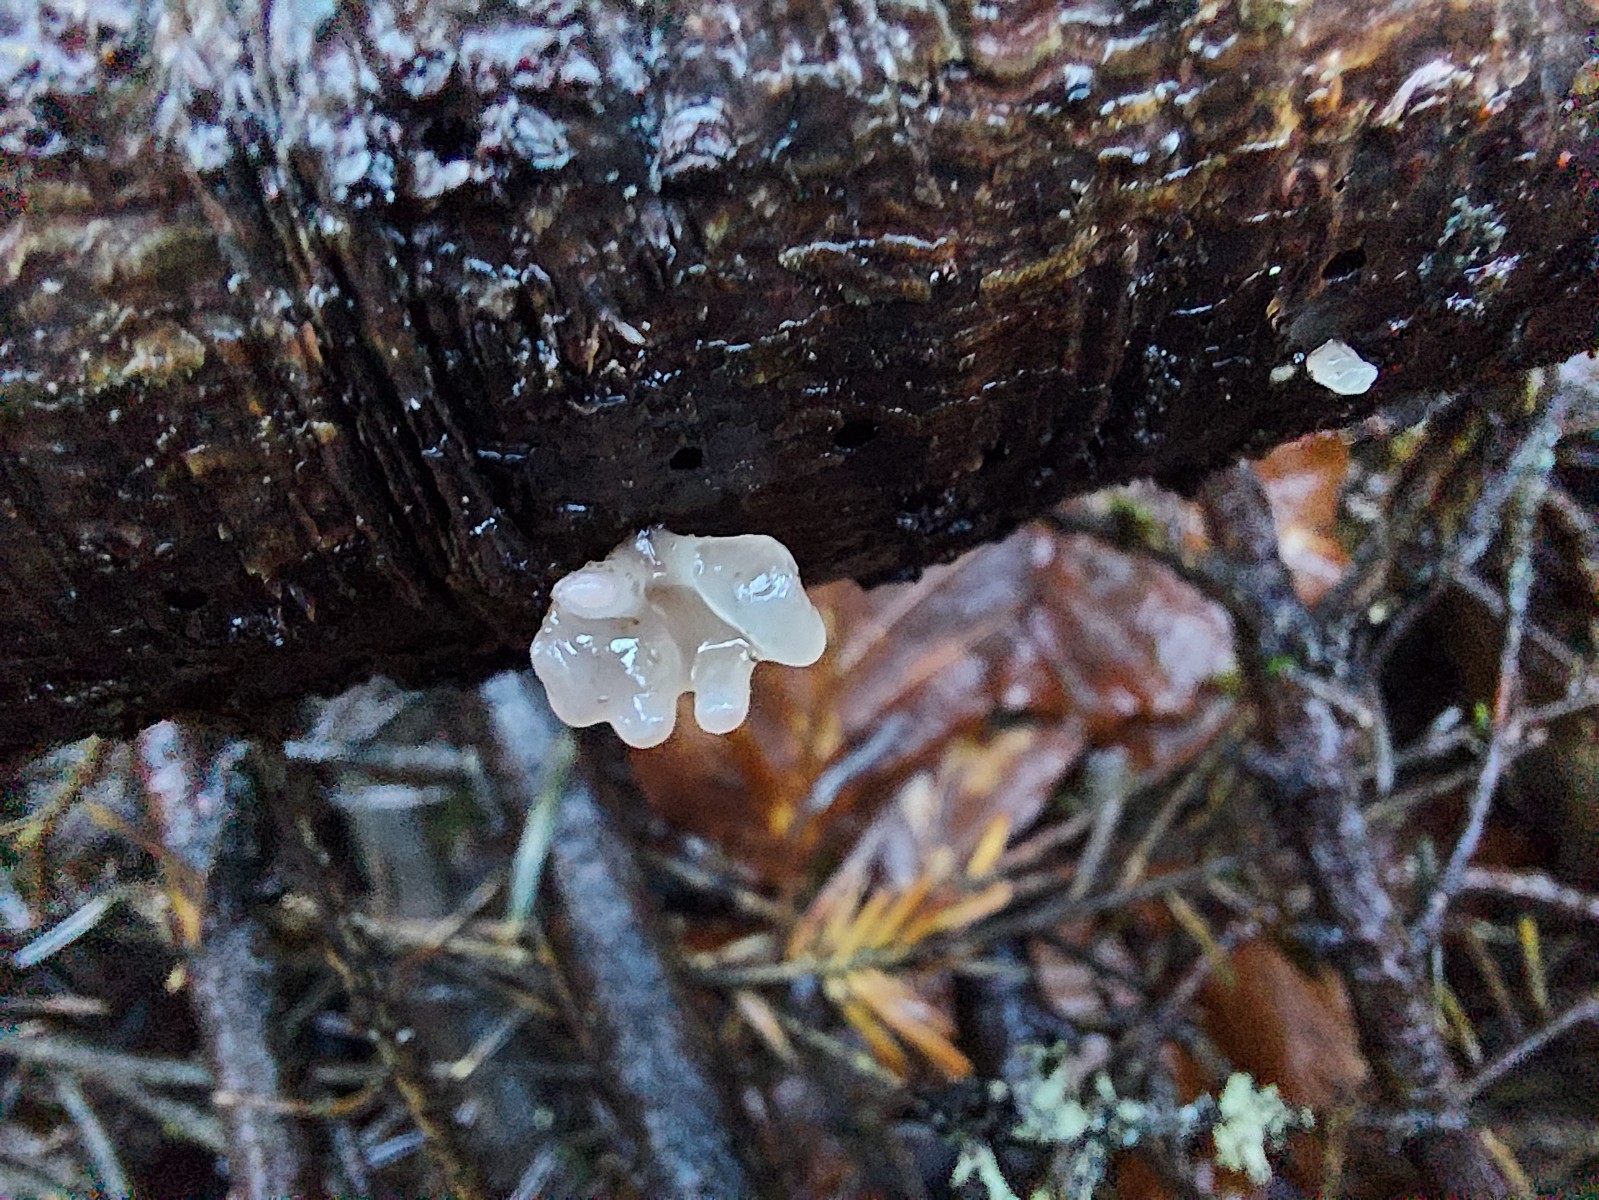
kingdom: Fungi
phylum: Ascomycota
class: Leotiomycetes
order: Helotiales
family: Gelatinodiscaceae
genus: Ascocoryne
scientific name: Ascocoryne sarcoides
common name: rødlilla sejskive
